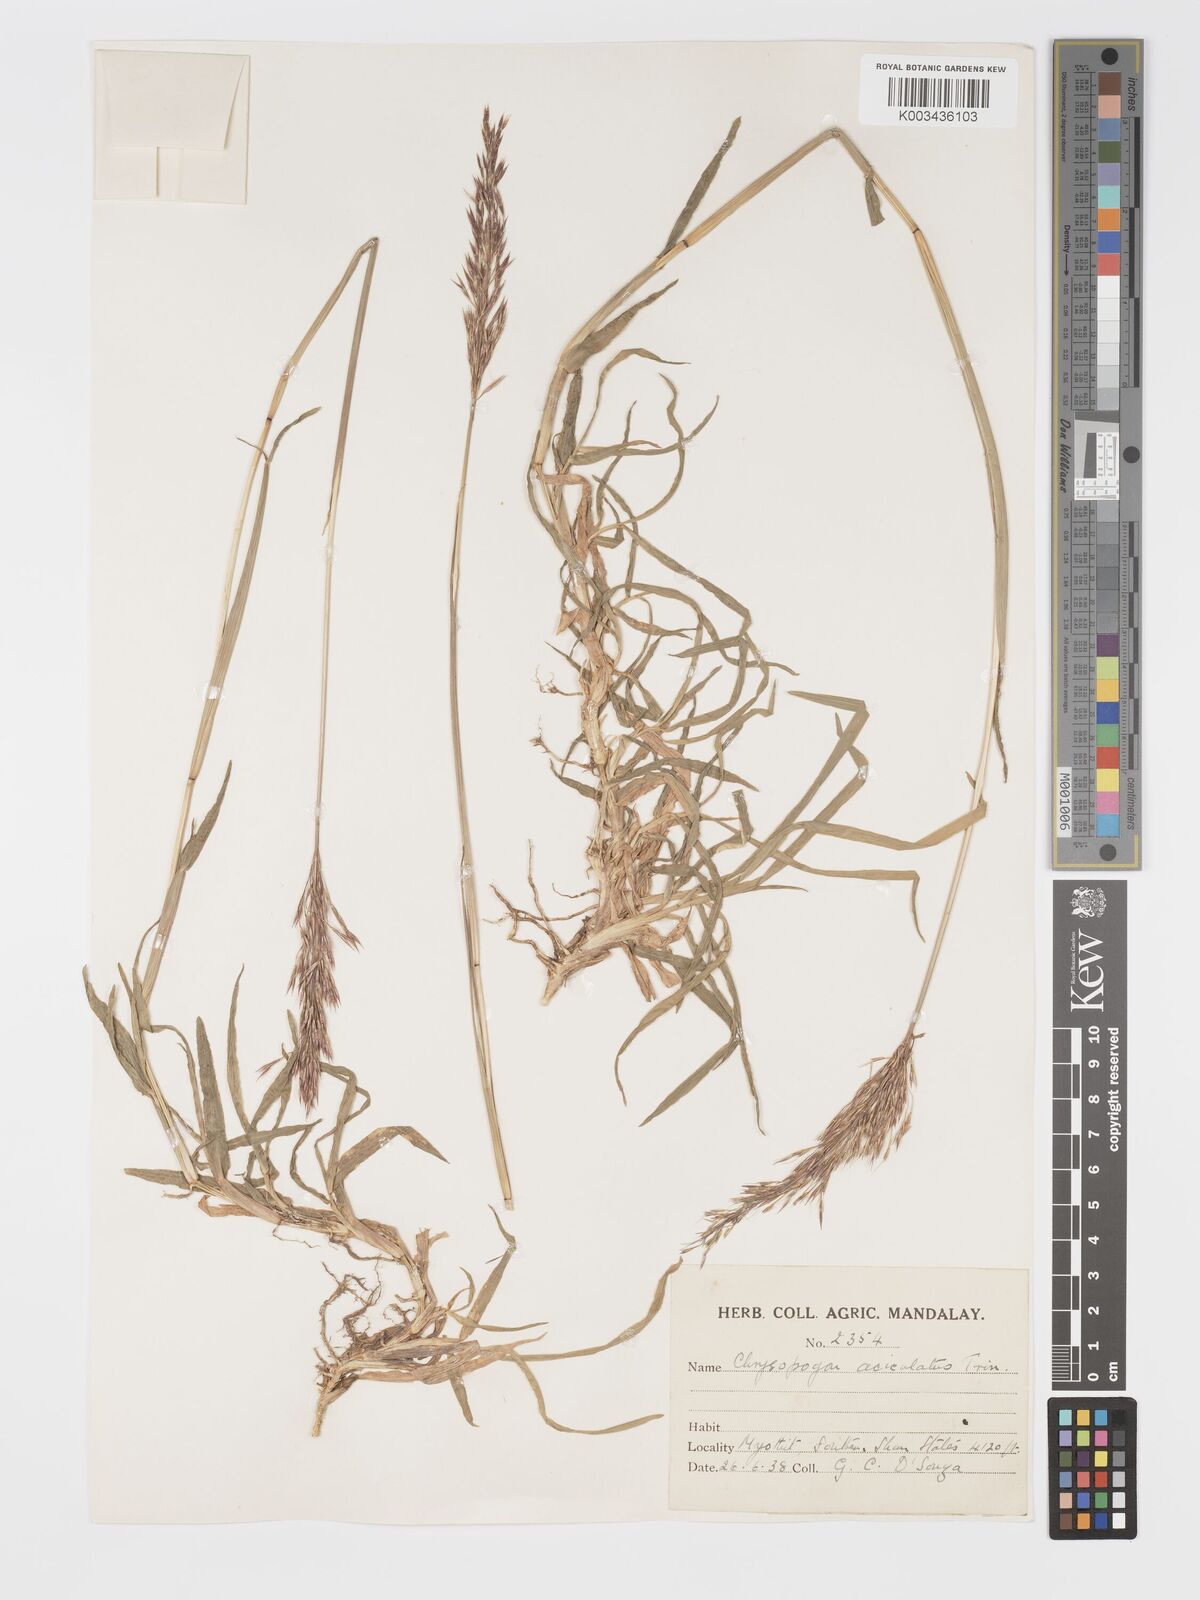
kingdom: Plantae
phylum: Tracheophyta
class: Liliopsida
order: Poales
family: Poaceae
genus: Chrysopogon
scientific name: Chrysopogon aciculatus
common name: Pilipiliula
